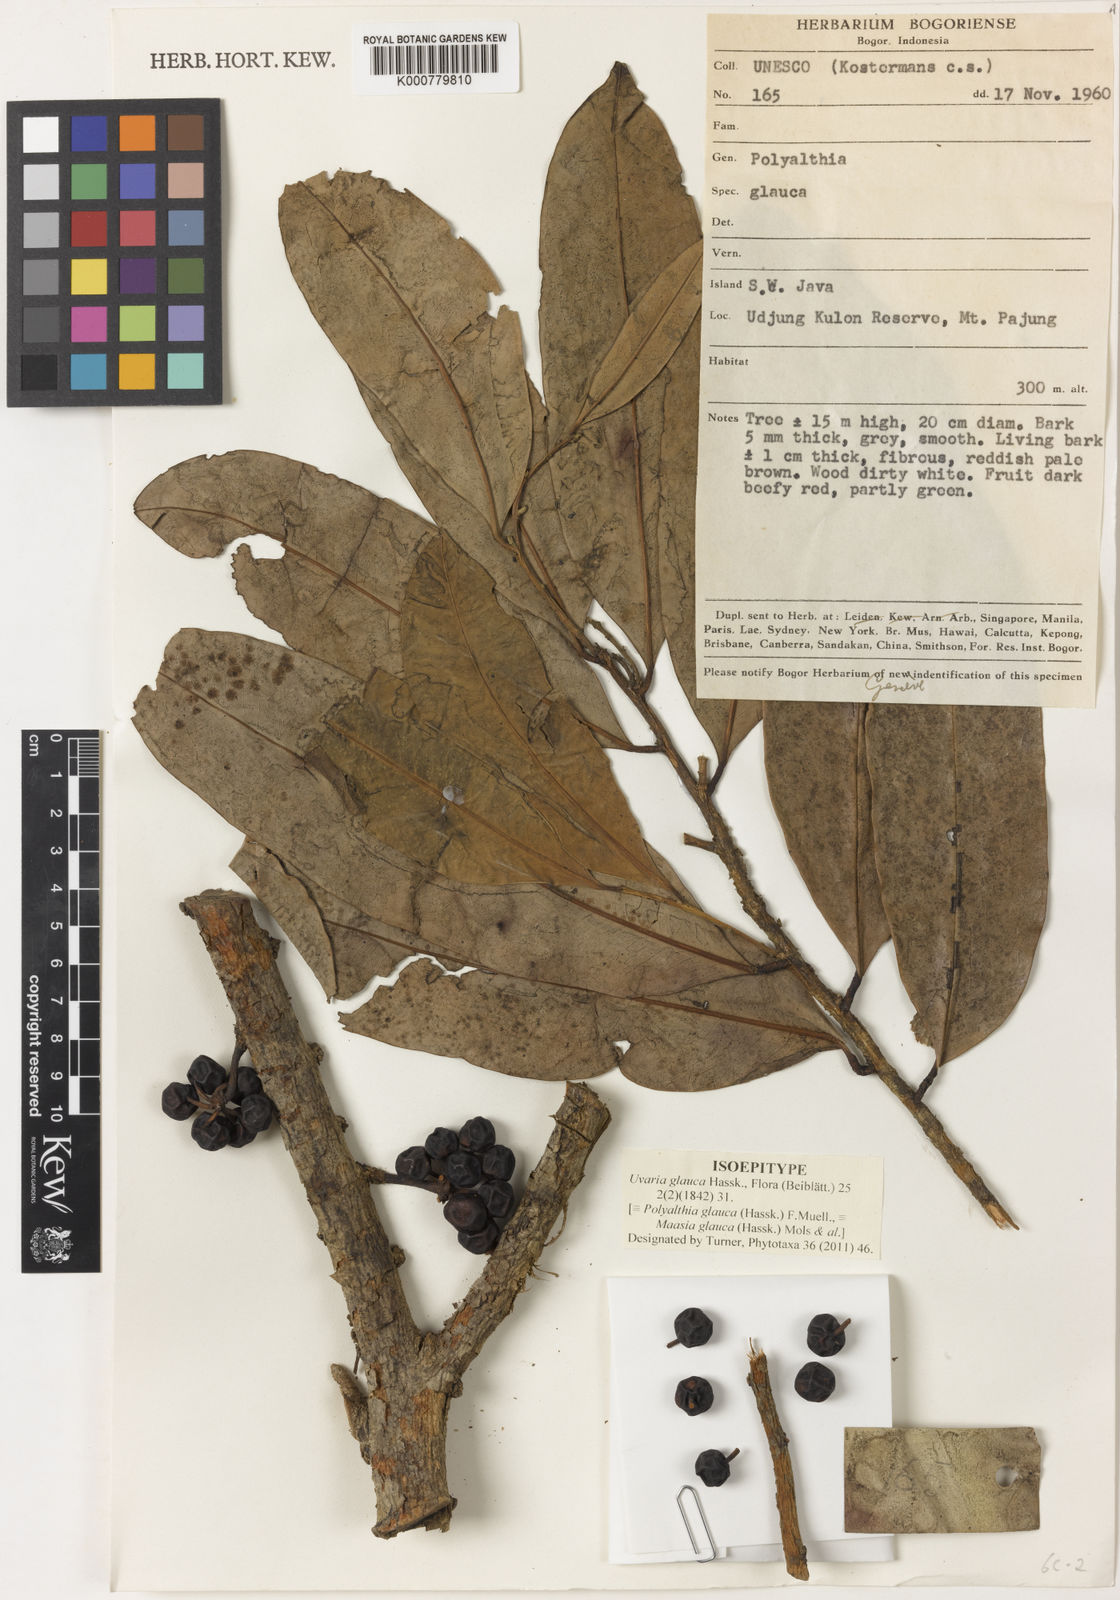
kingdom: Plantae
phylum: Tracheophyta
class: Magnoliopsida
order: Magnoliales
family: Annonaceae
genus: Maasia
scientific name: Maasia glauca
